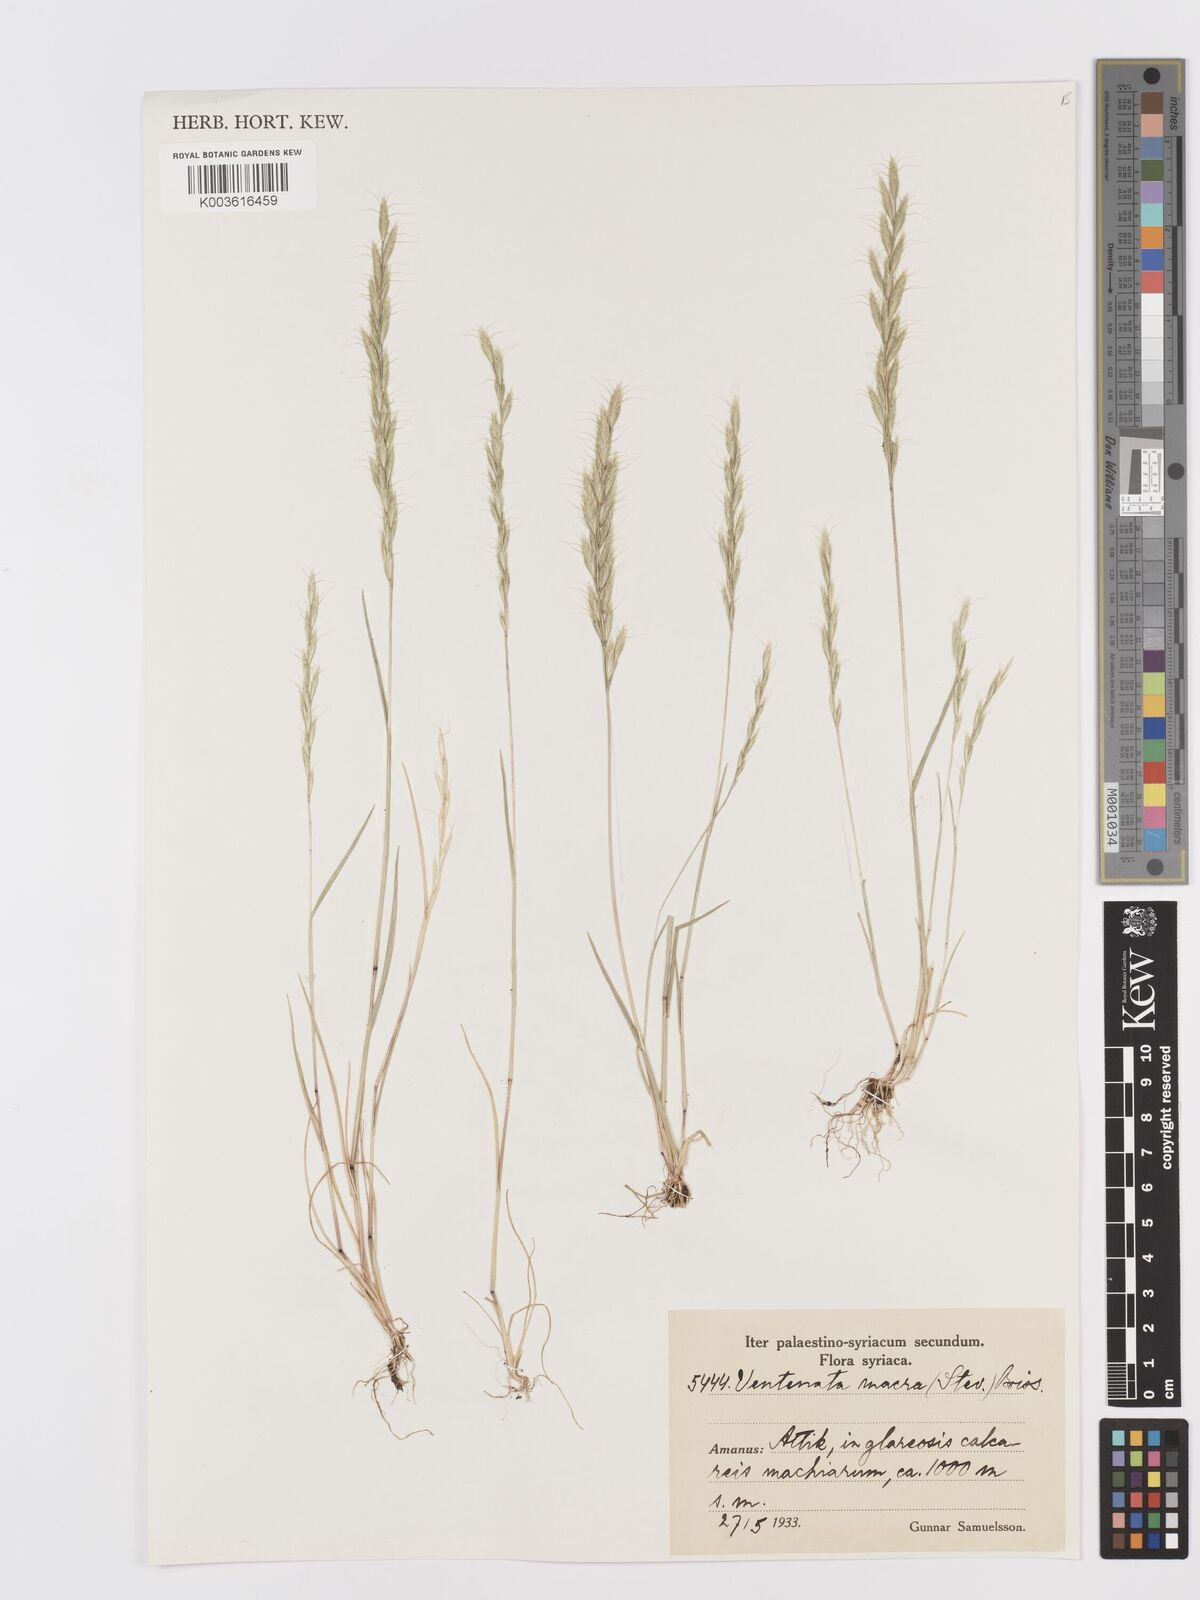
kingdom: Plantae
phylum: Tracheophyta
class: Liliopsida
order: Poales
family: Poaceae
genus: Ventenata
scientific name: Ventenata macra
